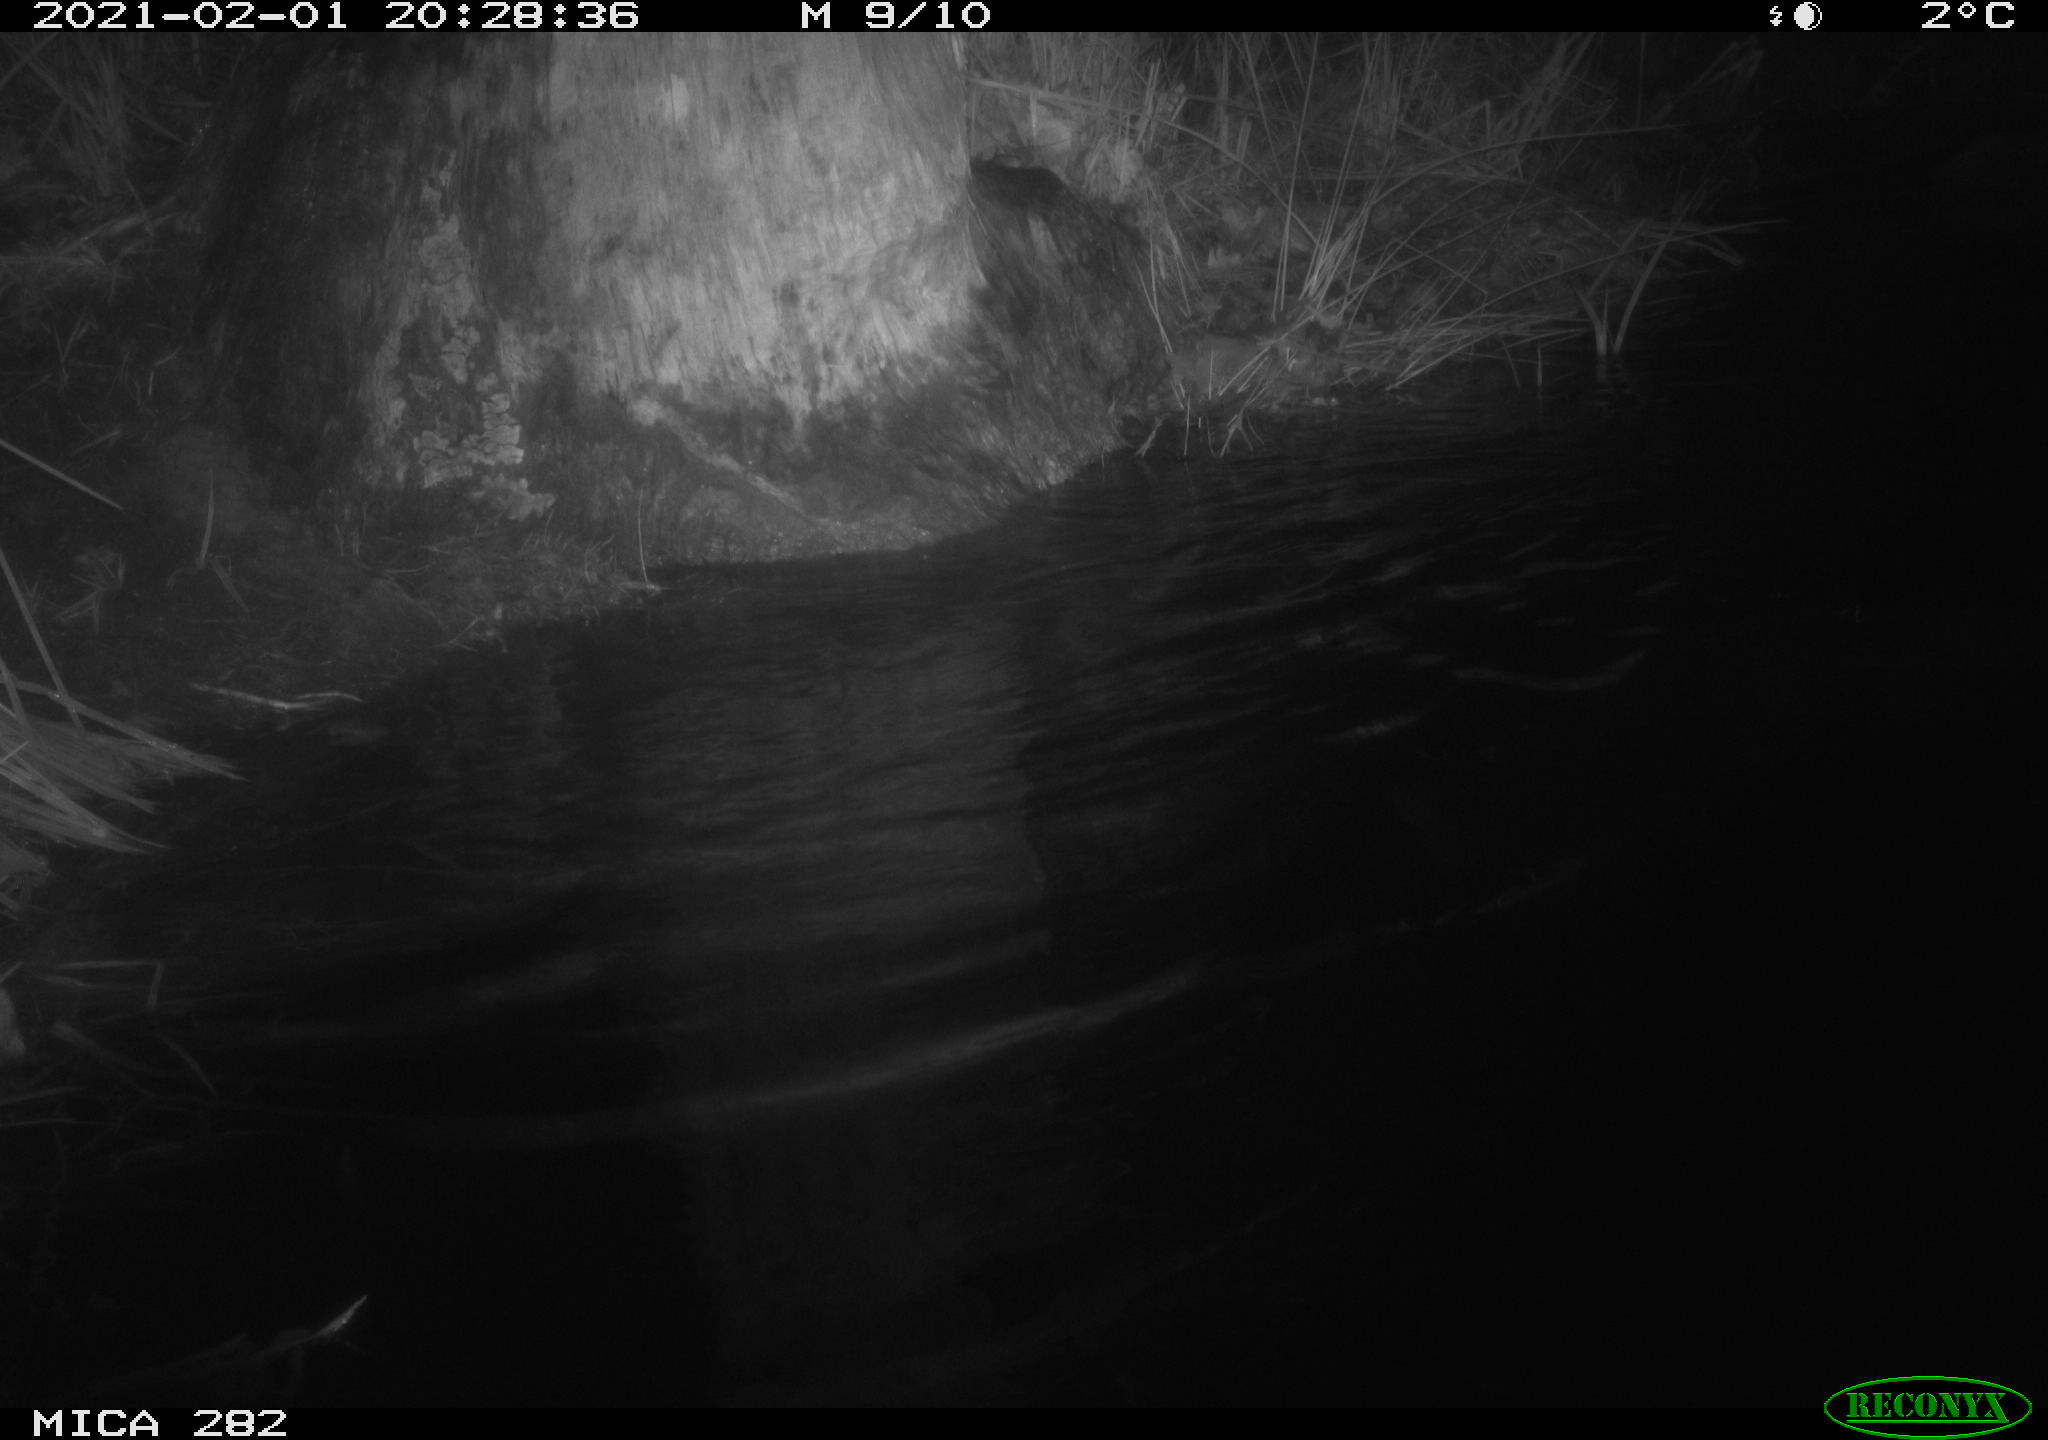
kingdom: Animalia
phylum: Chordata
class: Mammalia
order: Rodentia
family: Castoridae
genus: Castor
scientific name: Castor fiber
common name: Eurasian beaver
